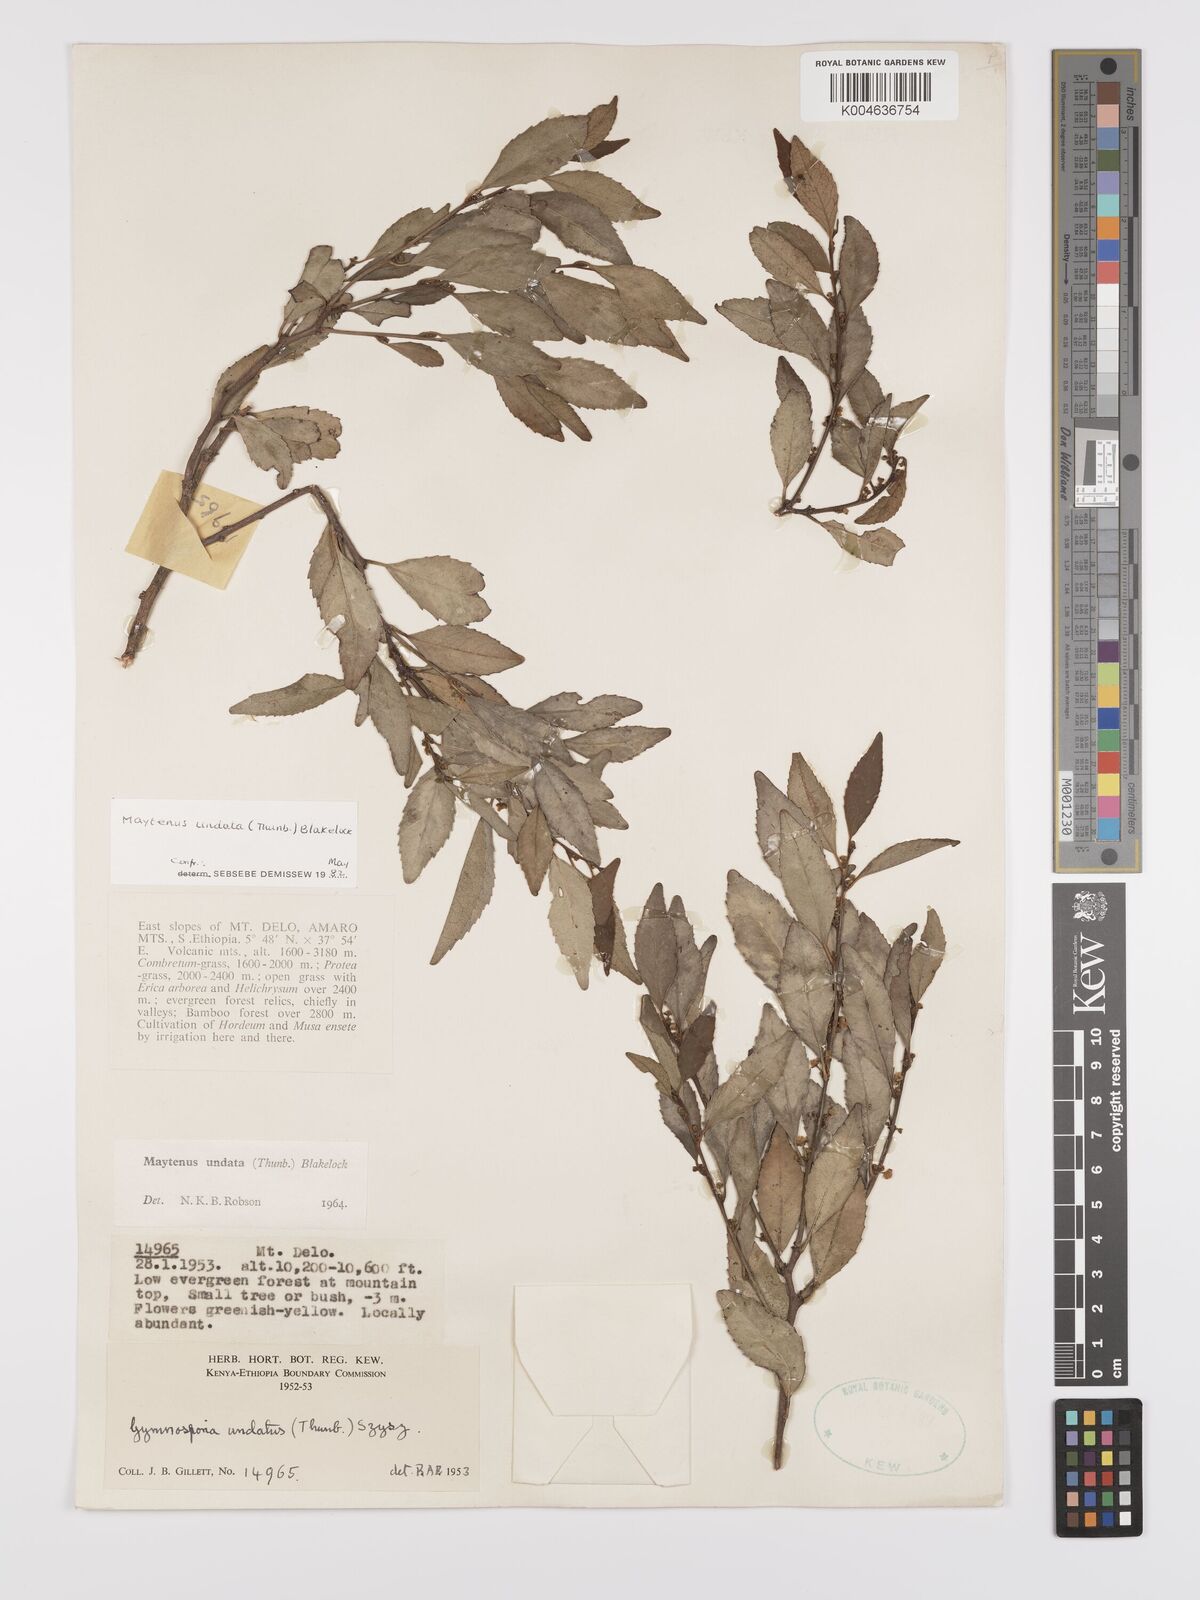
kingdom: Plantae
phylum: Tracheophyta
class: Magnoliopsida
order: Celastrales
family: Celastraceae
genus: Gymnosporia
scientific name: Gymnosporia undata
